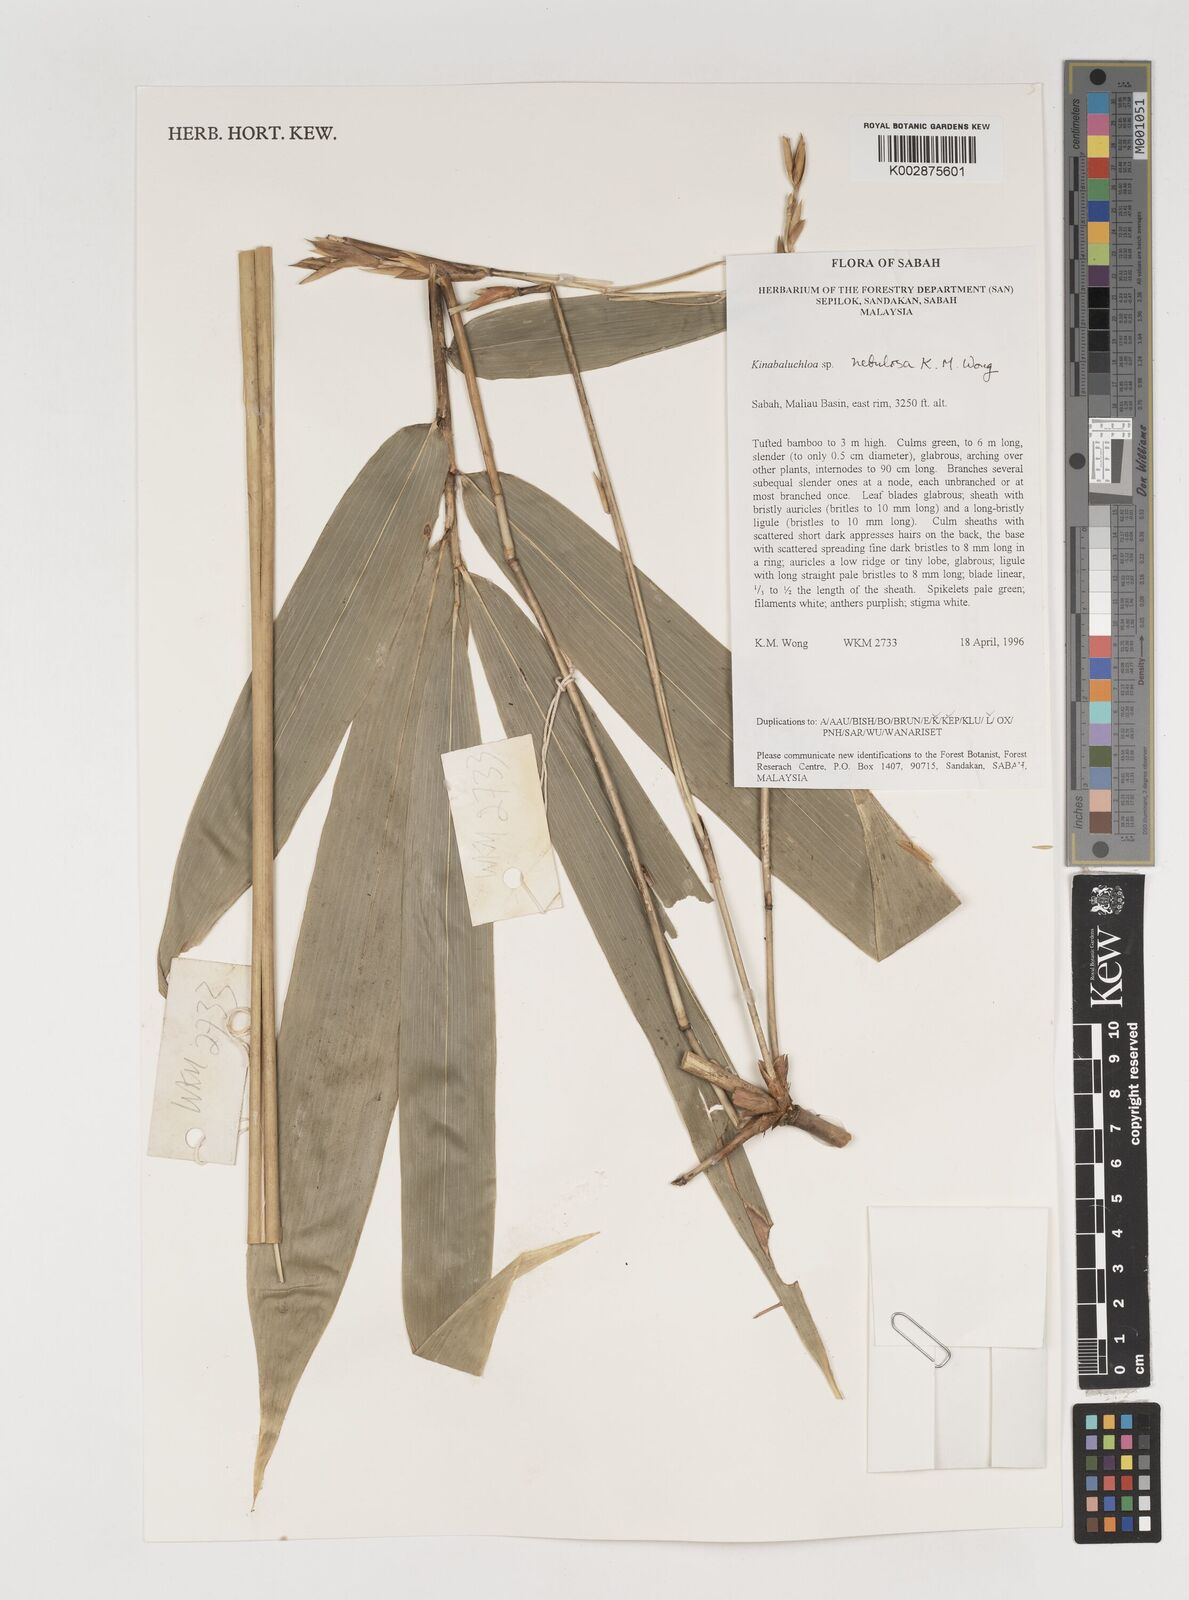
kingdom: Plantae
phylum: Tracheophyta
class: Liliopsida
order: Poales
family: Poaceae
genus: Kinabaluchloa
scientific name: Kinabaluchloa
